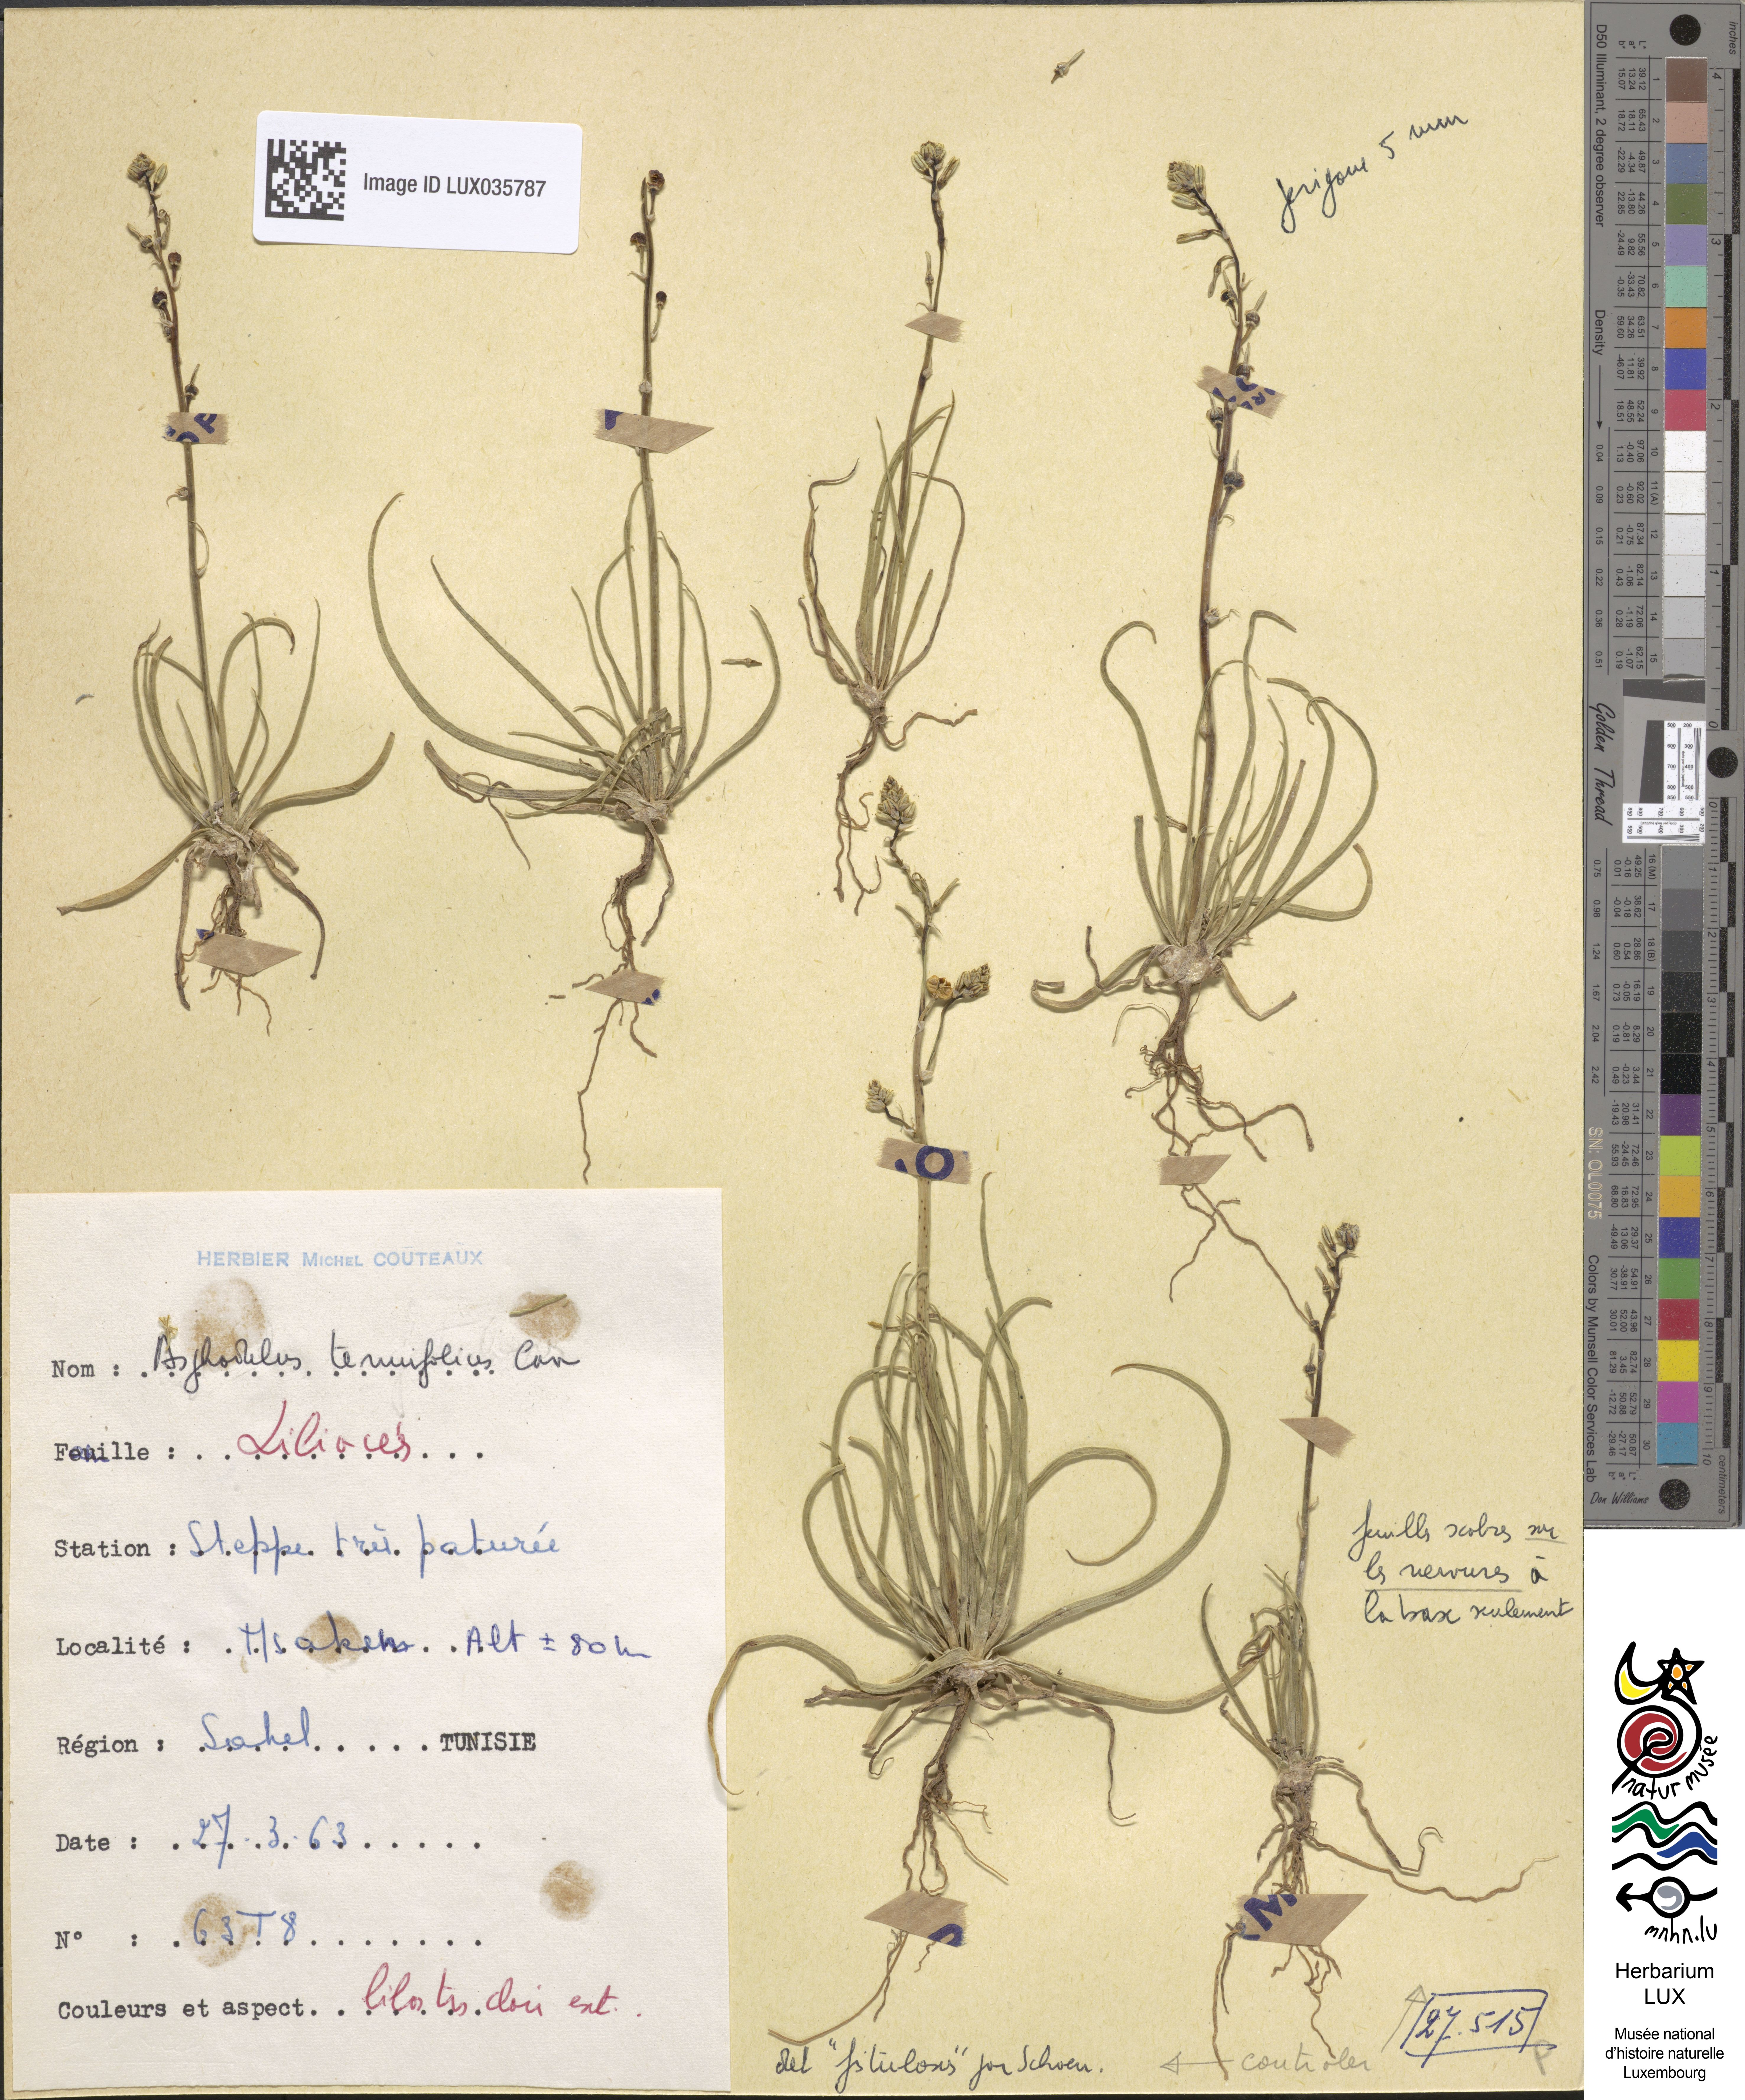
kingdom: Plantae
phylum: Tracheophyta
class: Liliopsida
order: Asparagales
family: Asphodelaceae
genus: Asphodelus
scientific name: Asphodelus tenuifolius
